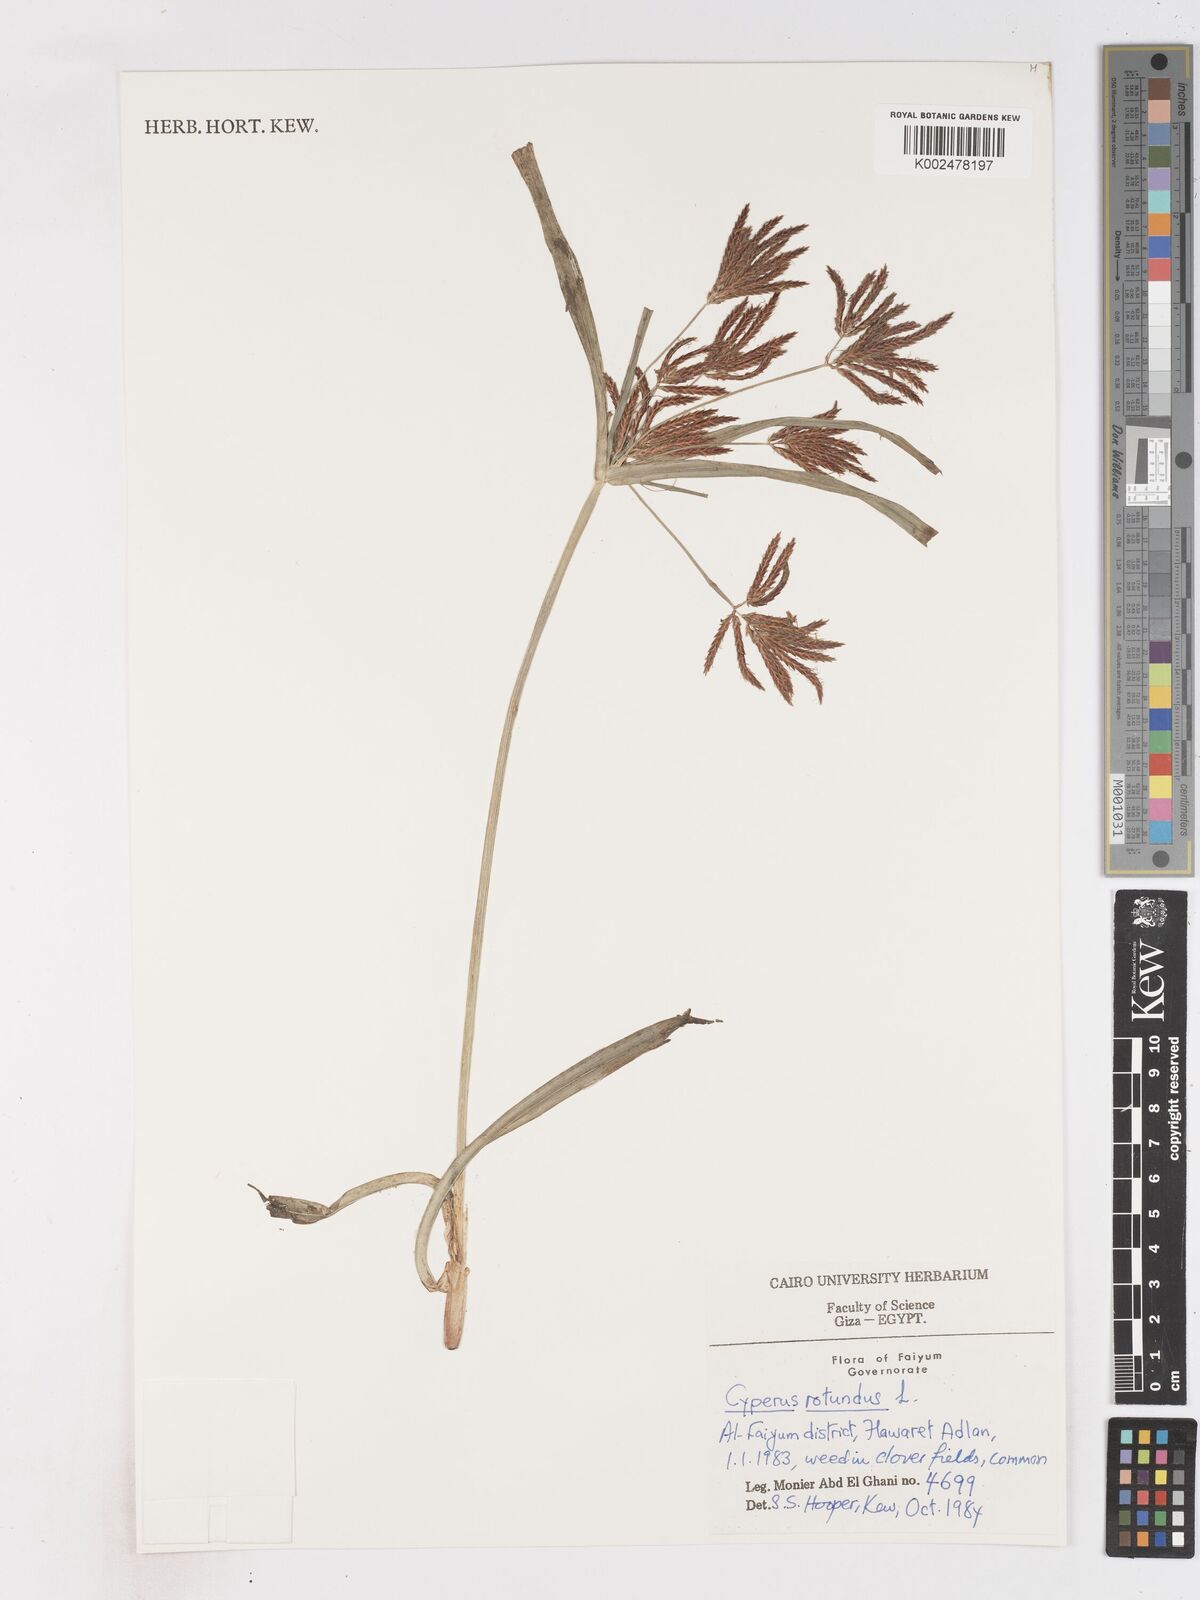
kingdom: Plantae
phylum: Tracheophyta
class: Liliopsida
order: Poales
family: Cyperaceae
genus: Cyperus
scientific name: Cyperus rotundus
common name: Nutgrass
